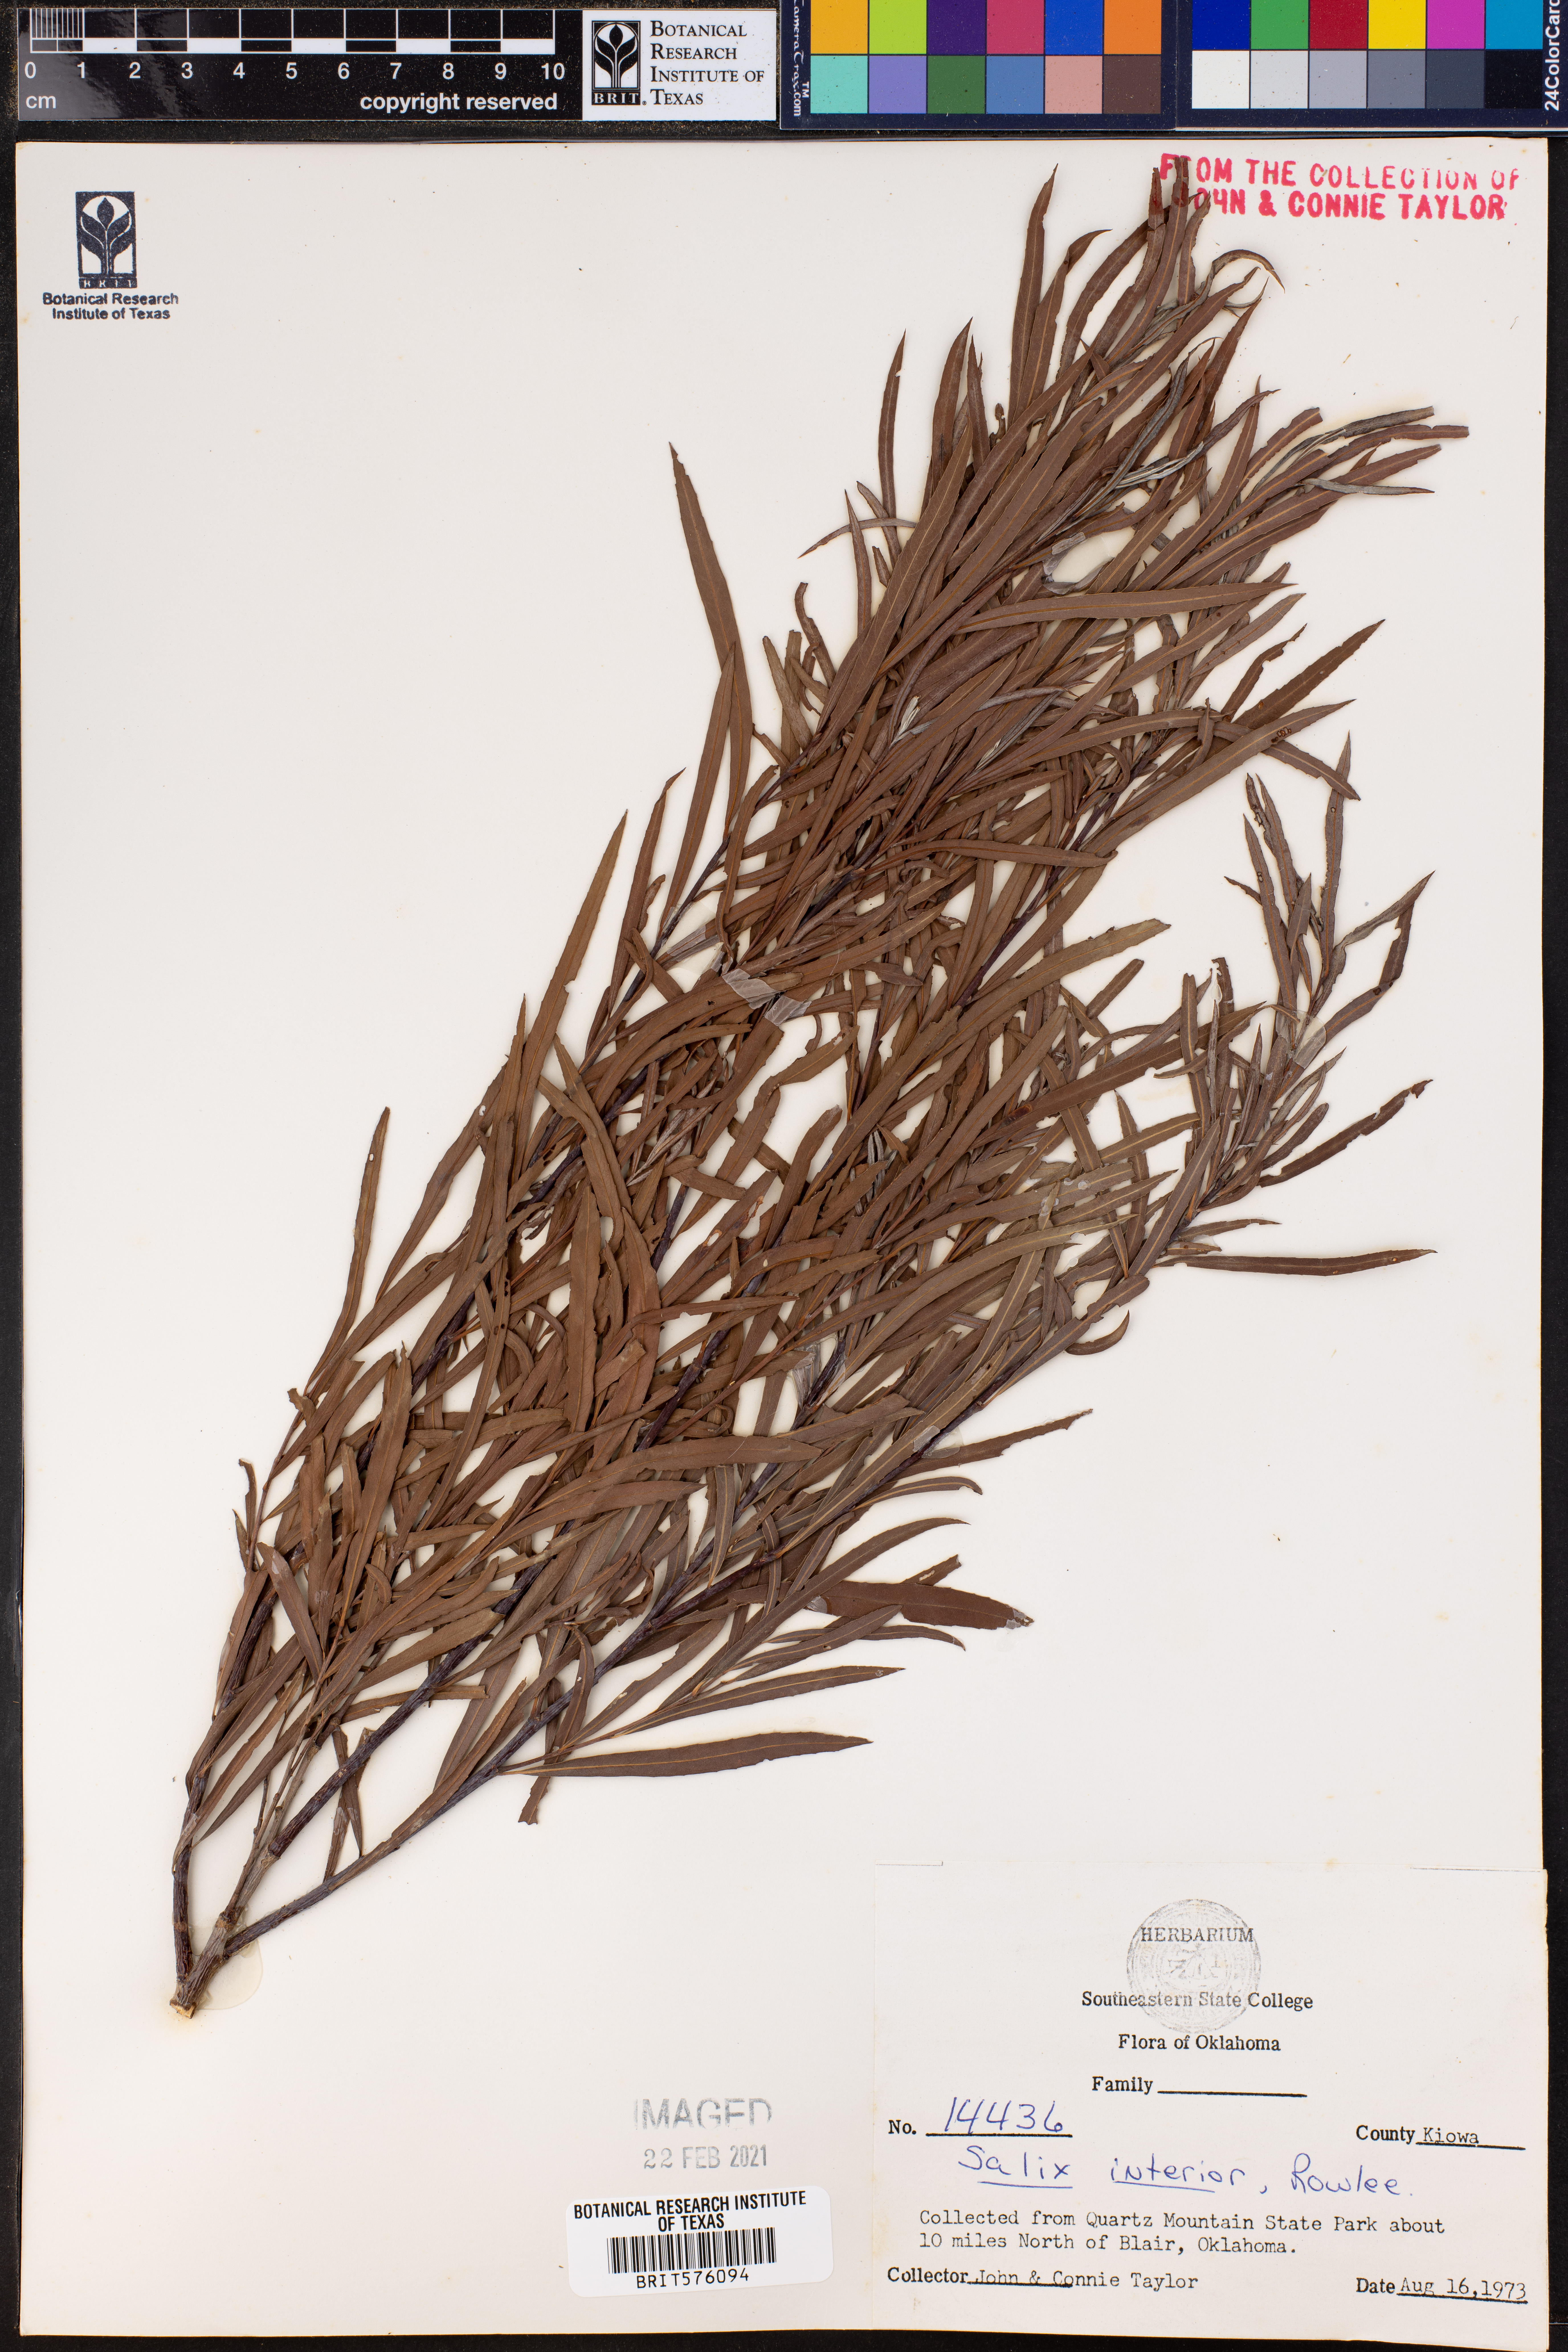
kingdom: Plantae
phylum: Tracheophyta
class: Magnoliopsida
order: Malpighiales
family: Salicaceae
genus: Salix
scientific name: Salix interior
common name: Sandbar willow
